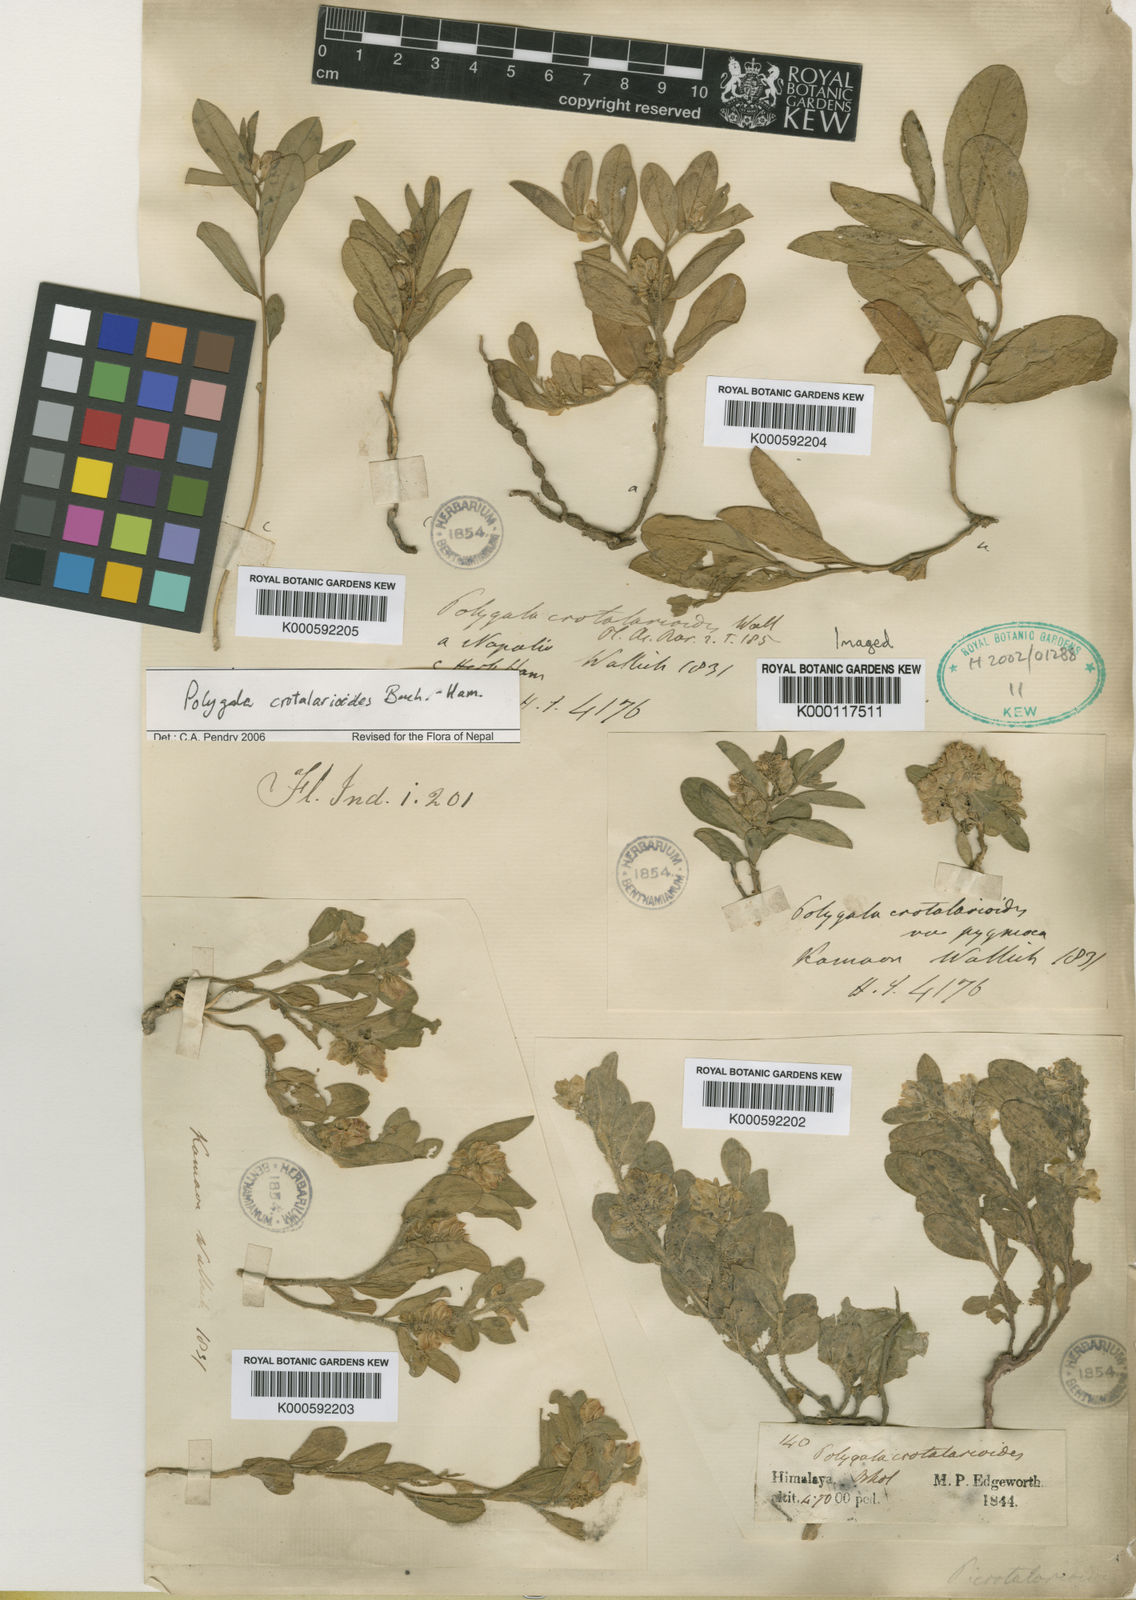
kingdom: Plantae
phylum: Tracheophyta
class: Magnoliopsida
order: Fabales
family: Polygalaceae
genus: Polygala
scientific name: Polygala crotalarioides
